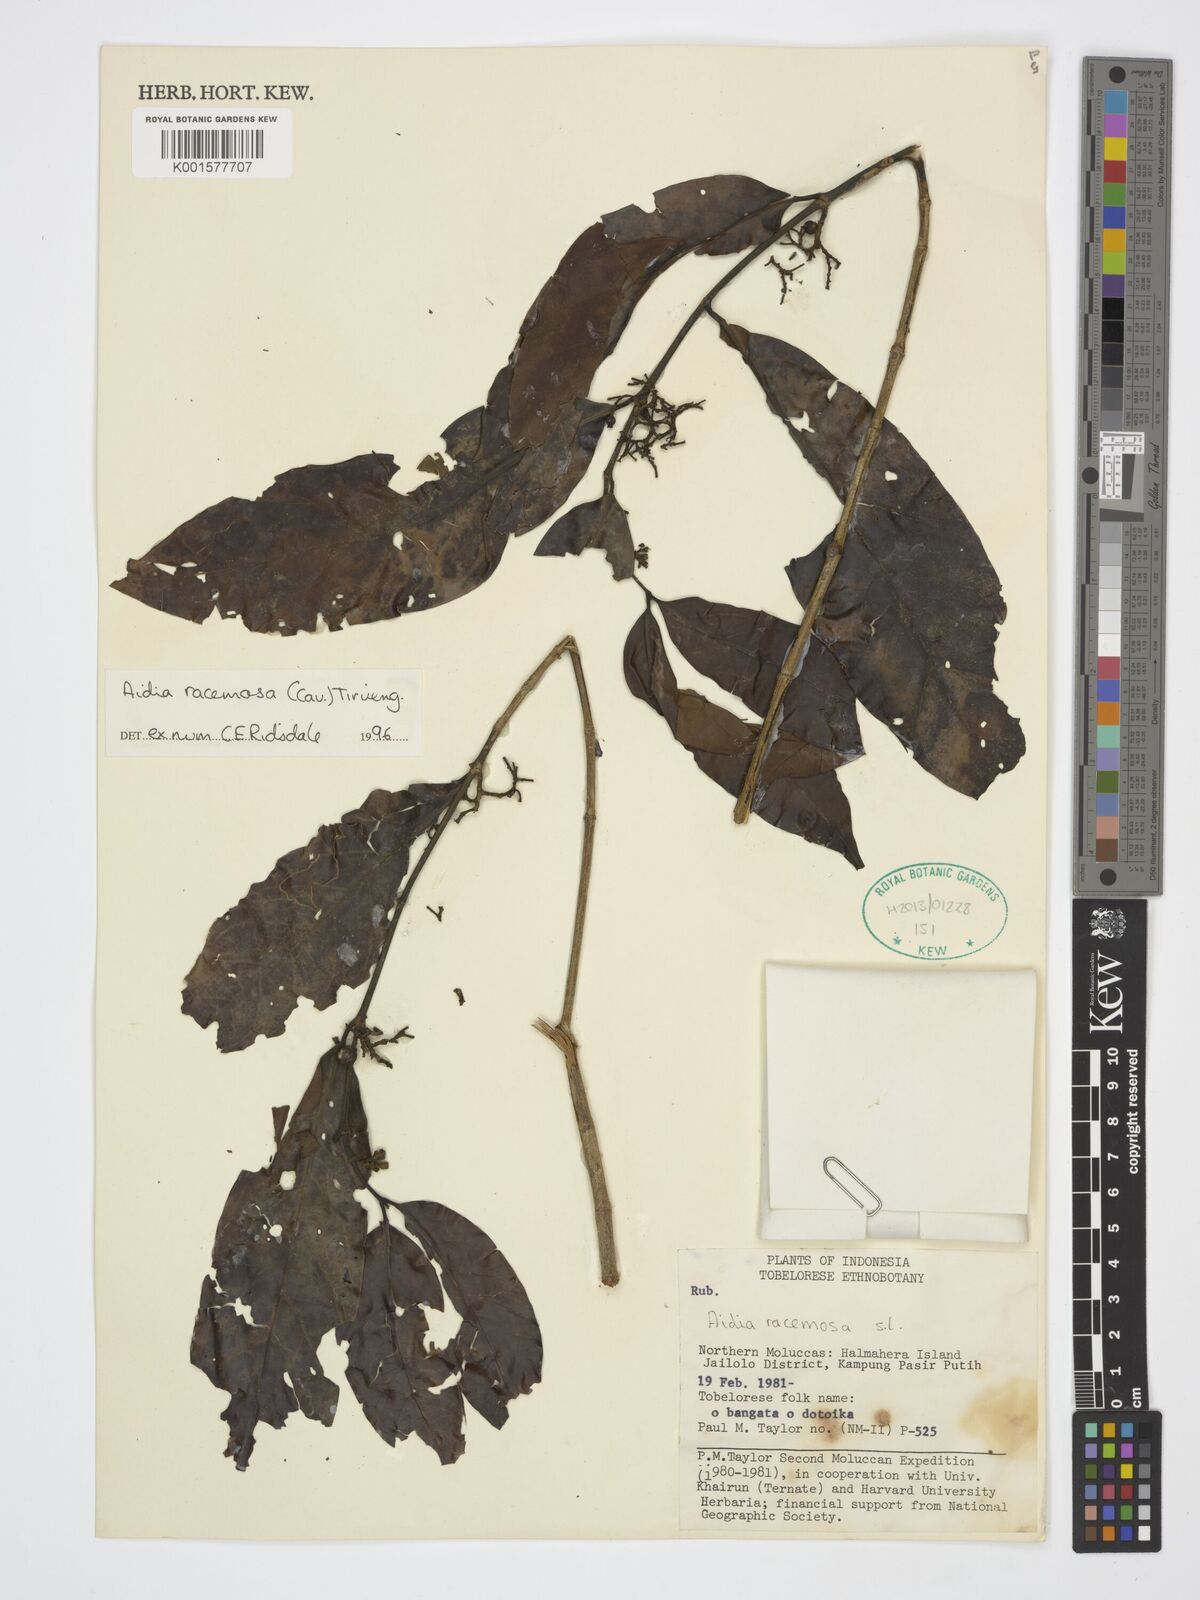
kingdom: Plantae
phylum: Tracheophyta
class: Magnoliopsida
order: Gentianales
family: Rubiaceae
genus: Aidia
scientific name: Aidia racemosa
